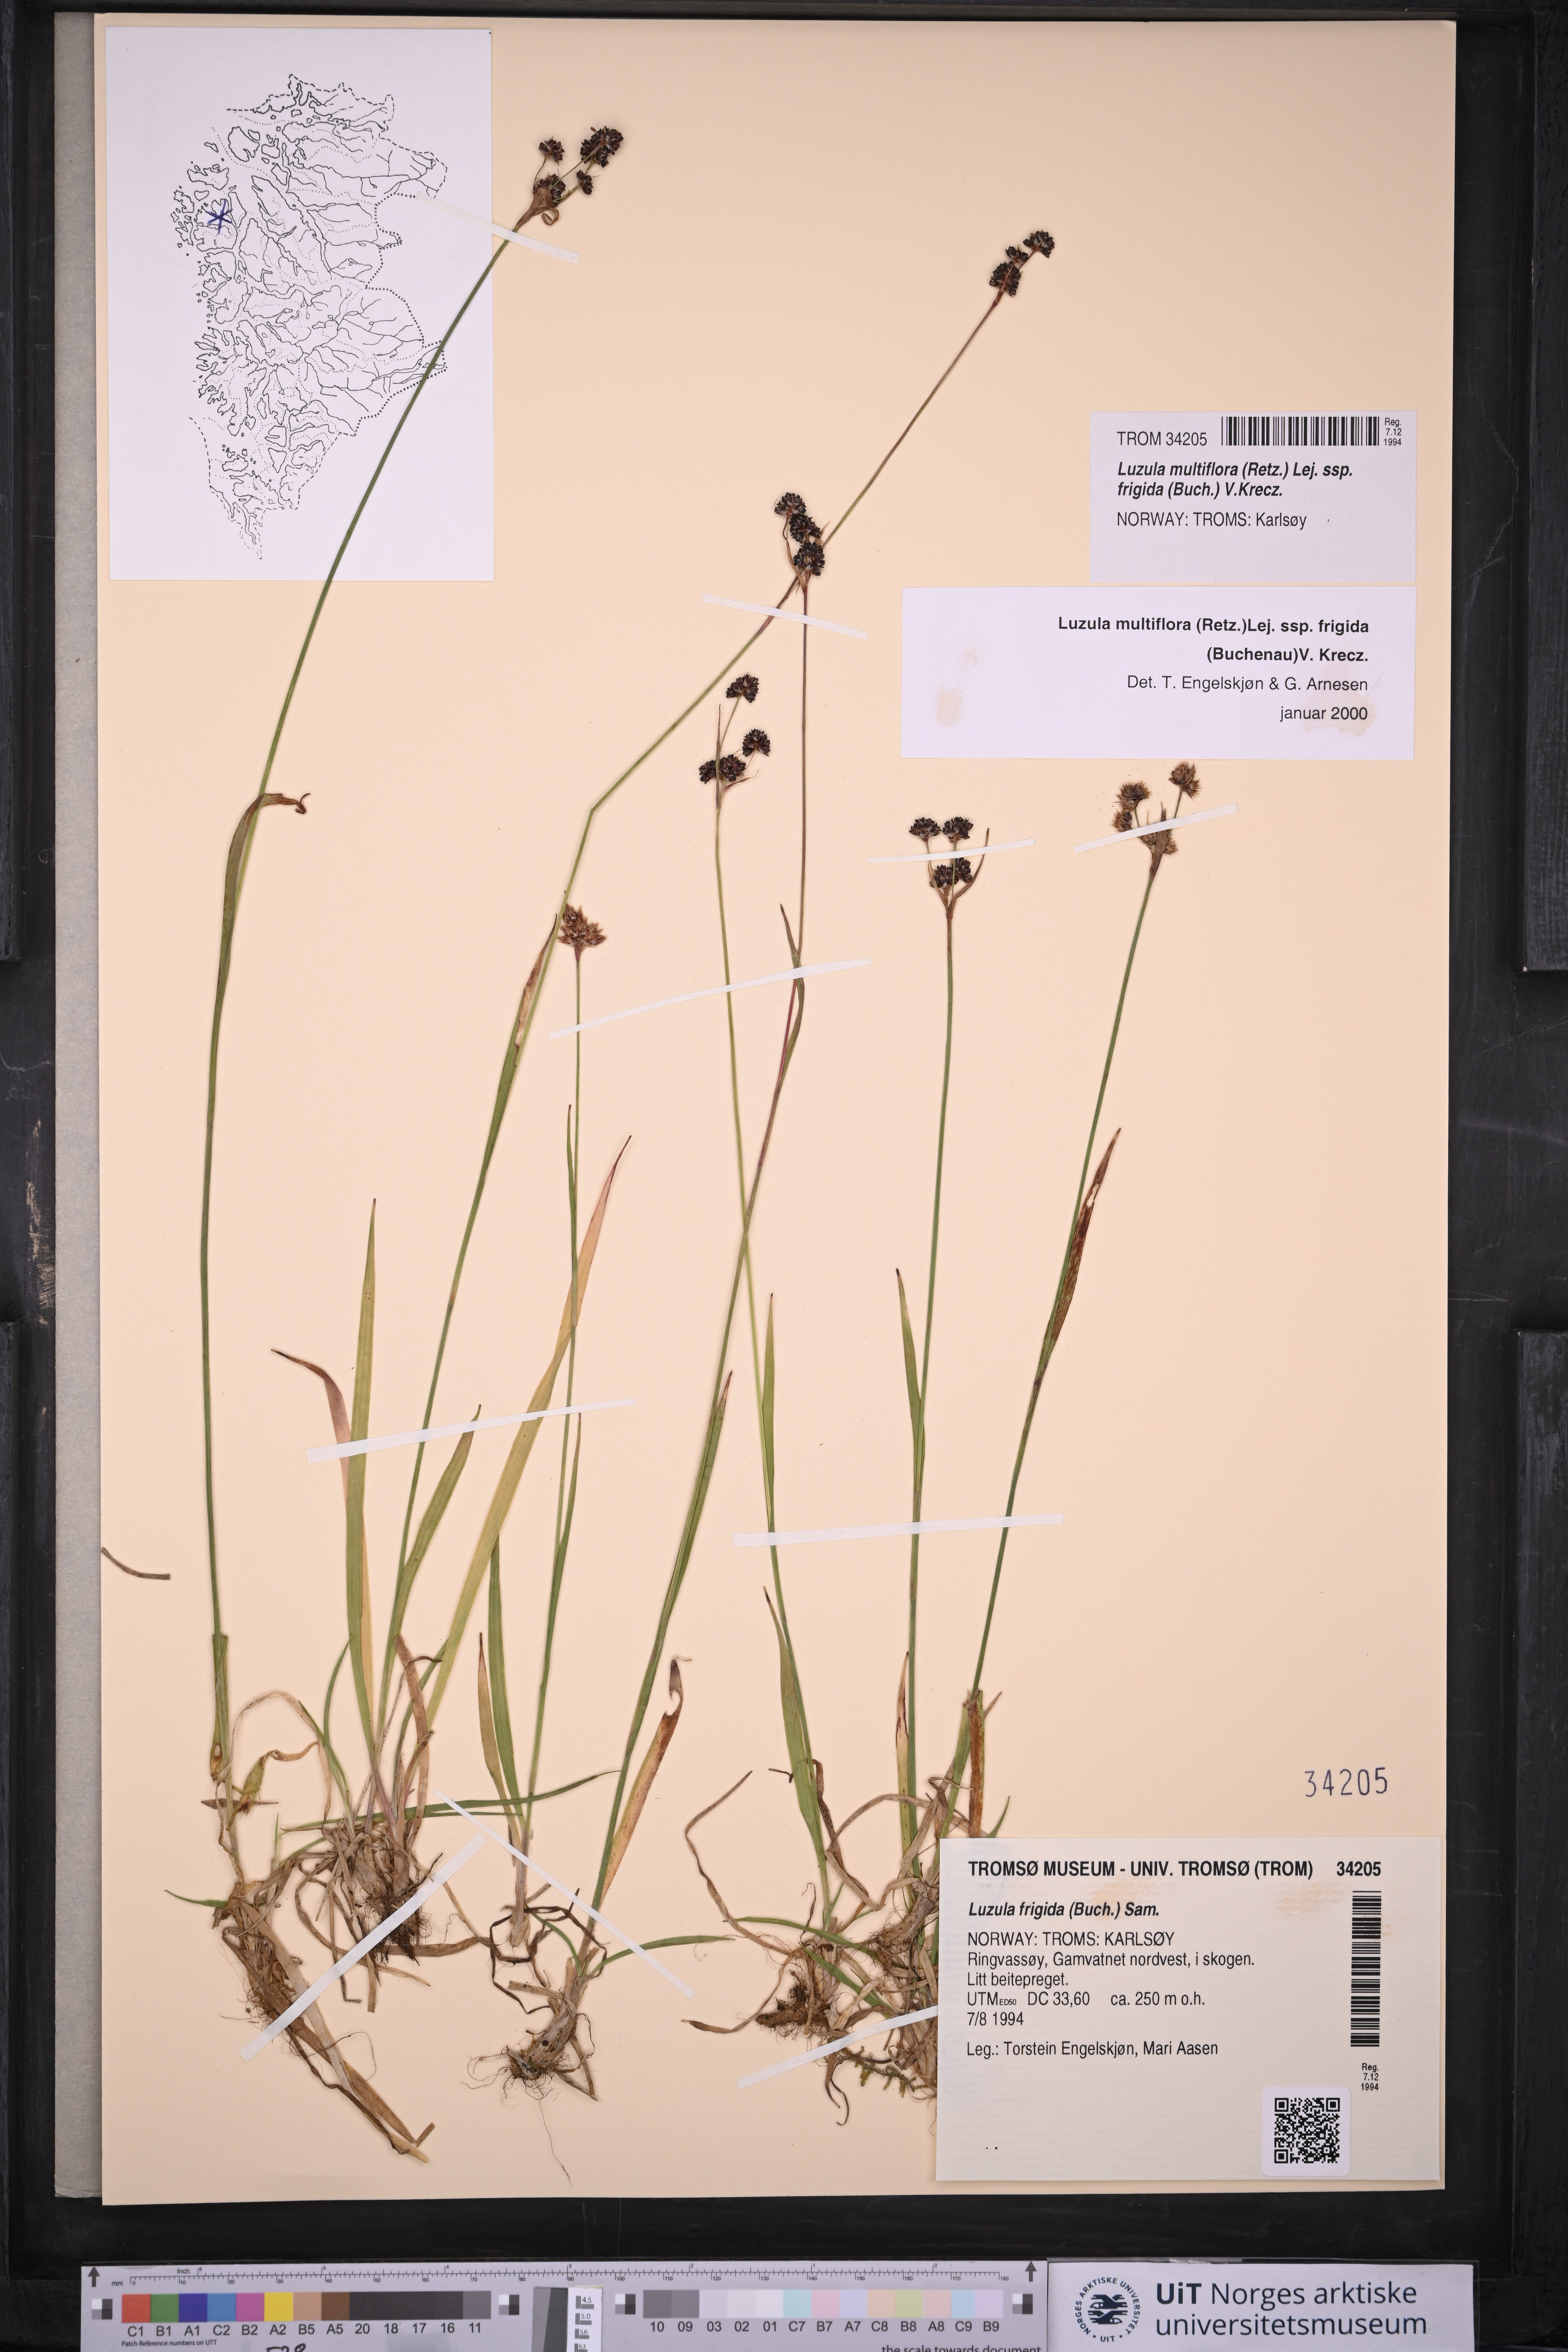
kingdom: Plantae
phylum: Tracheophyta
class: Liliopsida
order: Poales
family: Juncaceae
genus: Luzula
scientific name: Luzula multiflora
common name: Heath wood-rush
